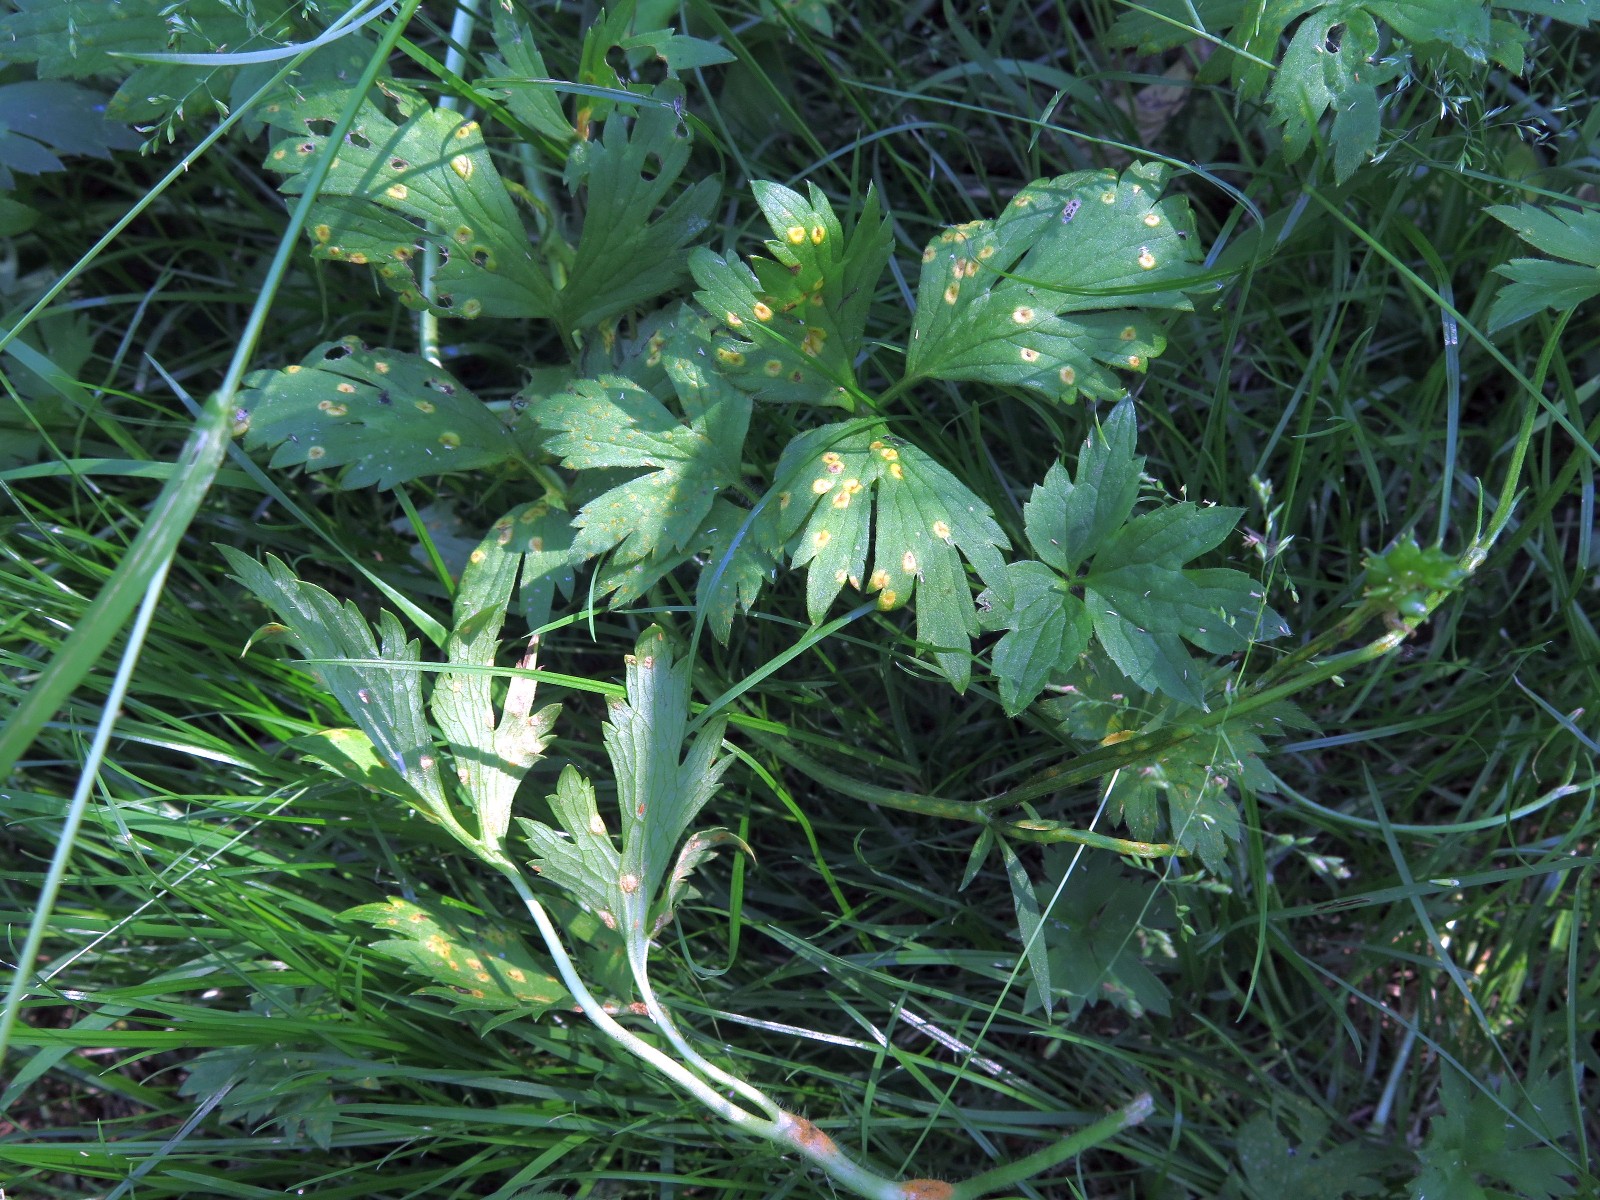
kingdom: Fungi
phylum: Basidiomycota
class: Pucciniomycetes
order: Pucciniales
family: Pucciniaceae
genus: Puccinia
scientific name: Puccinia recondita
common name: Brown rust of wheat
